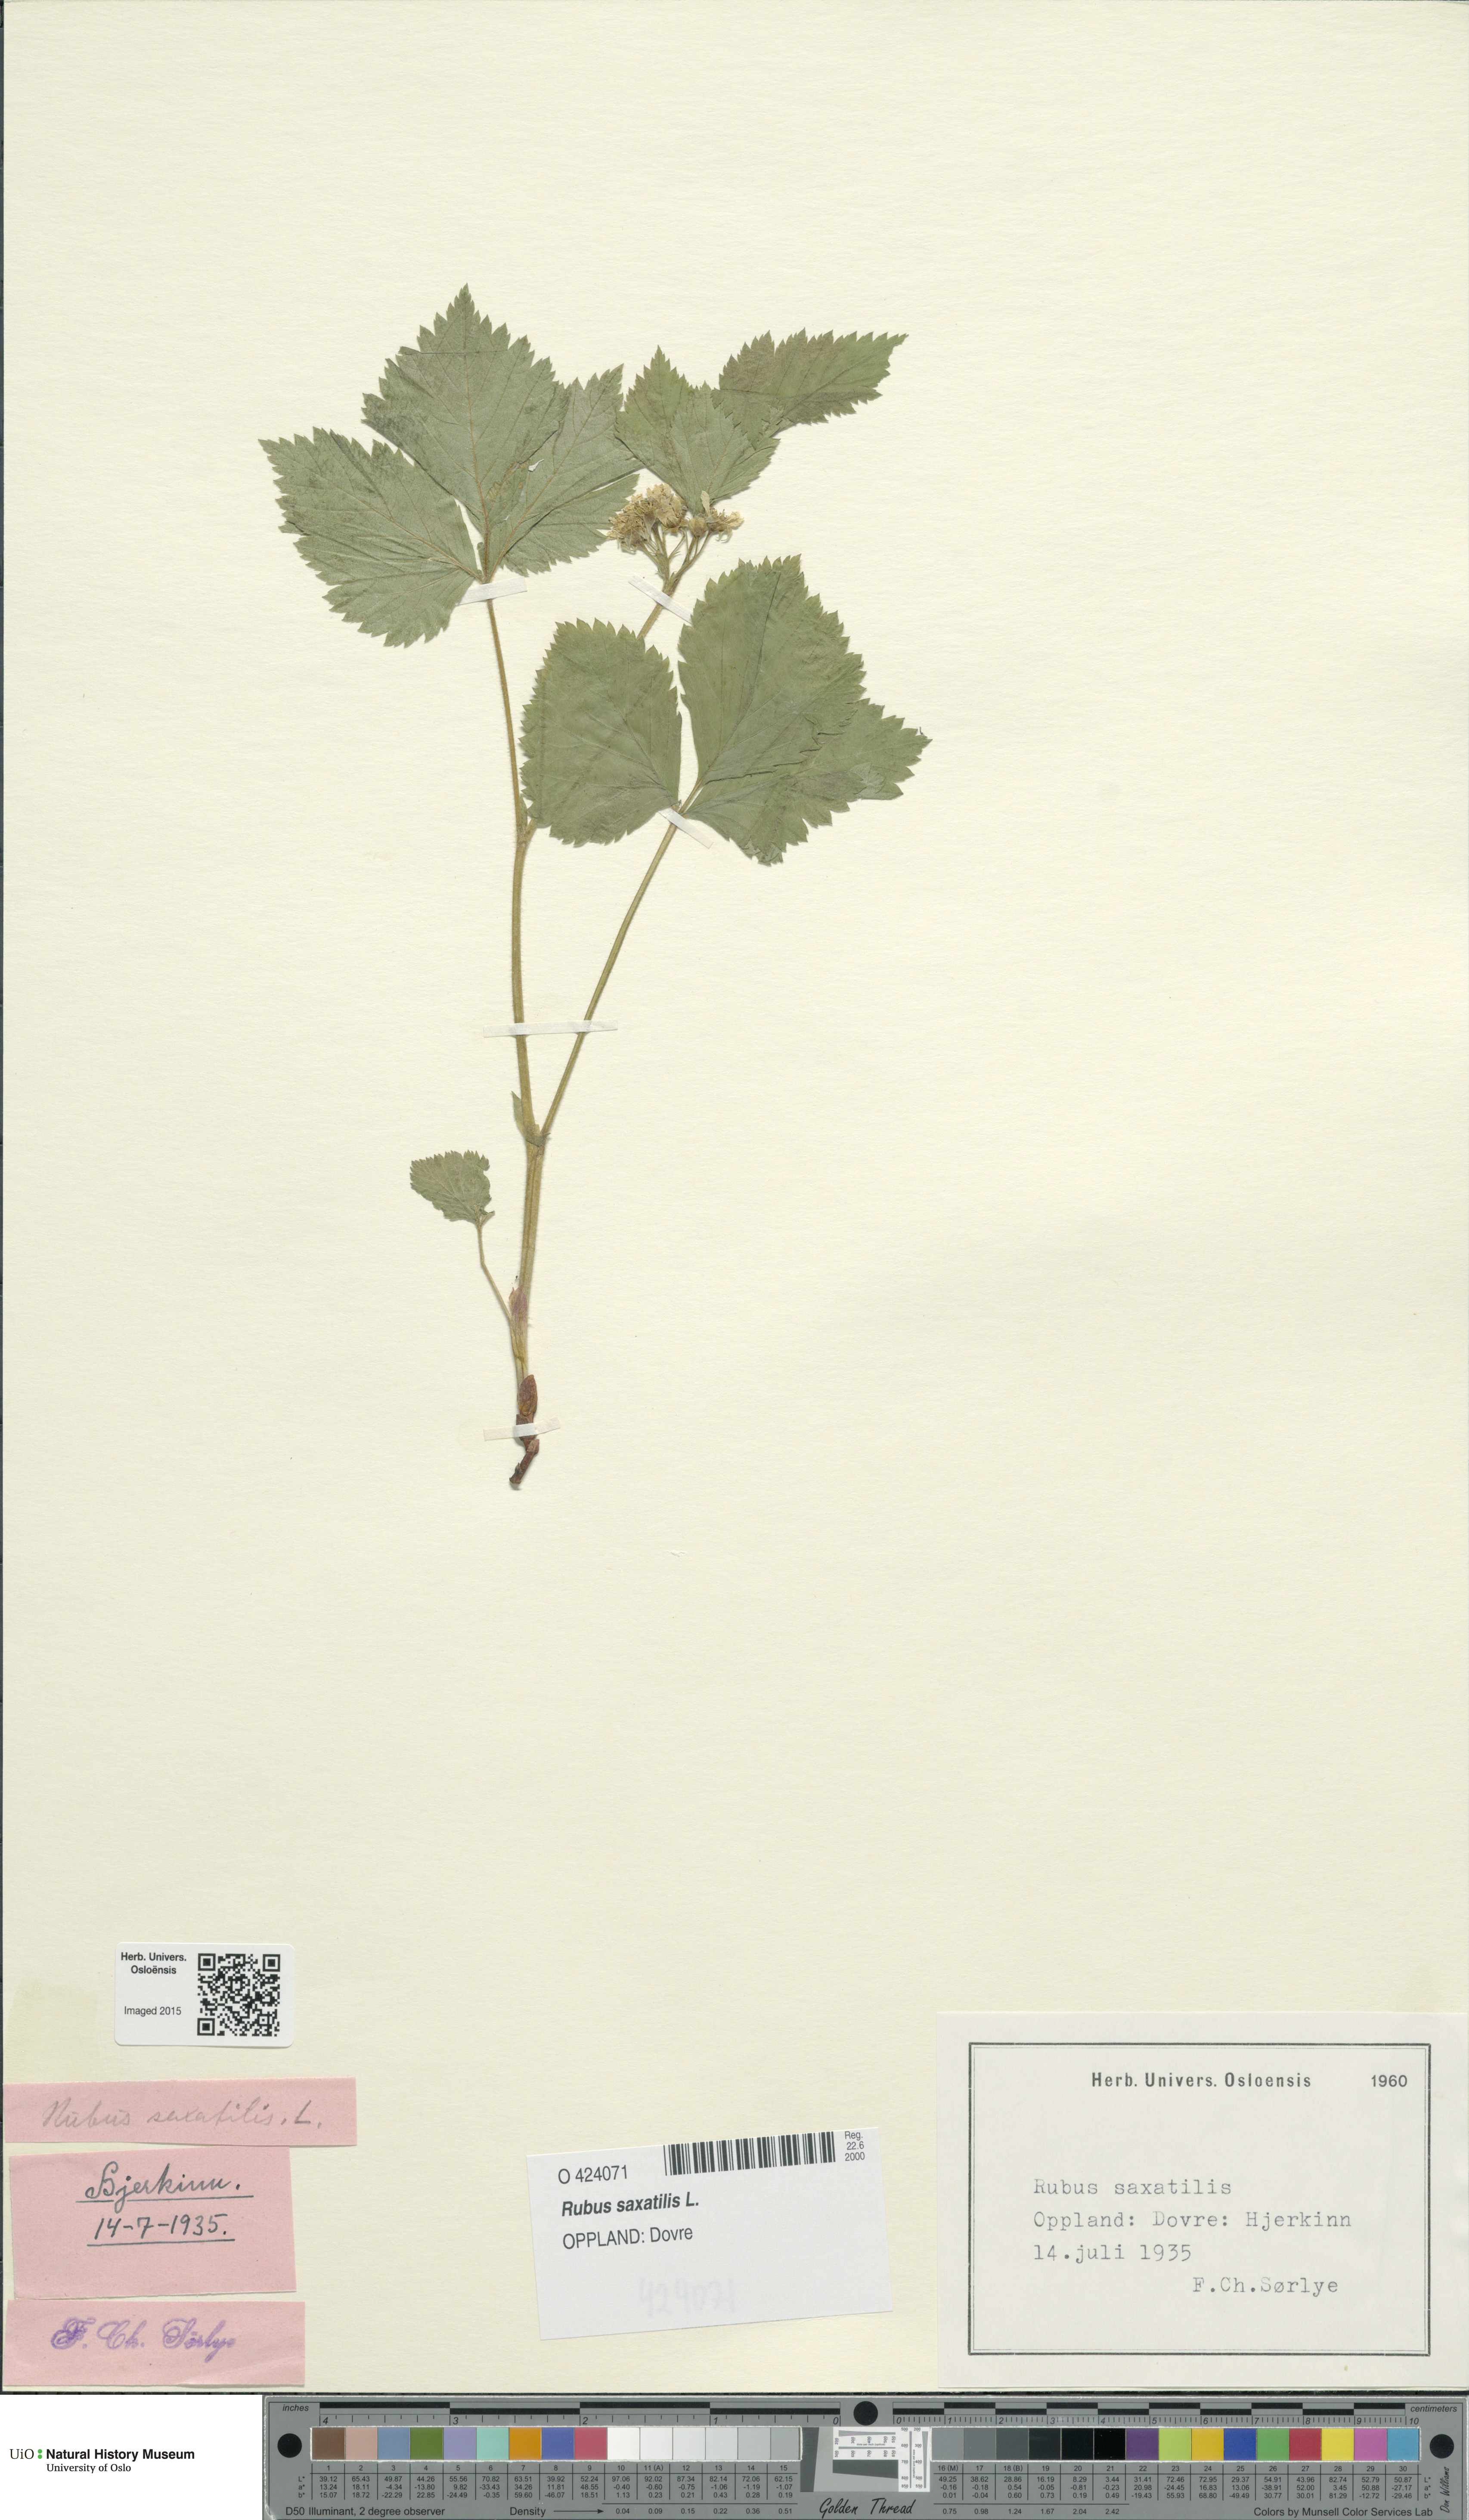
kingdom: Plantae
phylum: Tracheophyta
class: Magnoliopsida
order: Rosales
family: Rosaceae
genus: Rubus
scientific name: Rubus saxatilis
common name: Stone bramble
